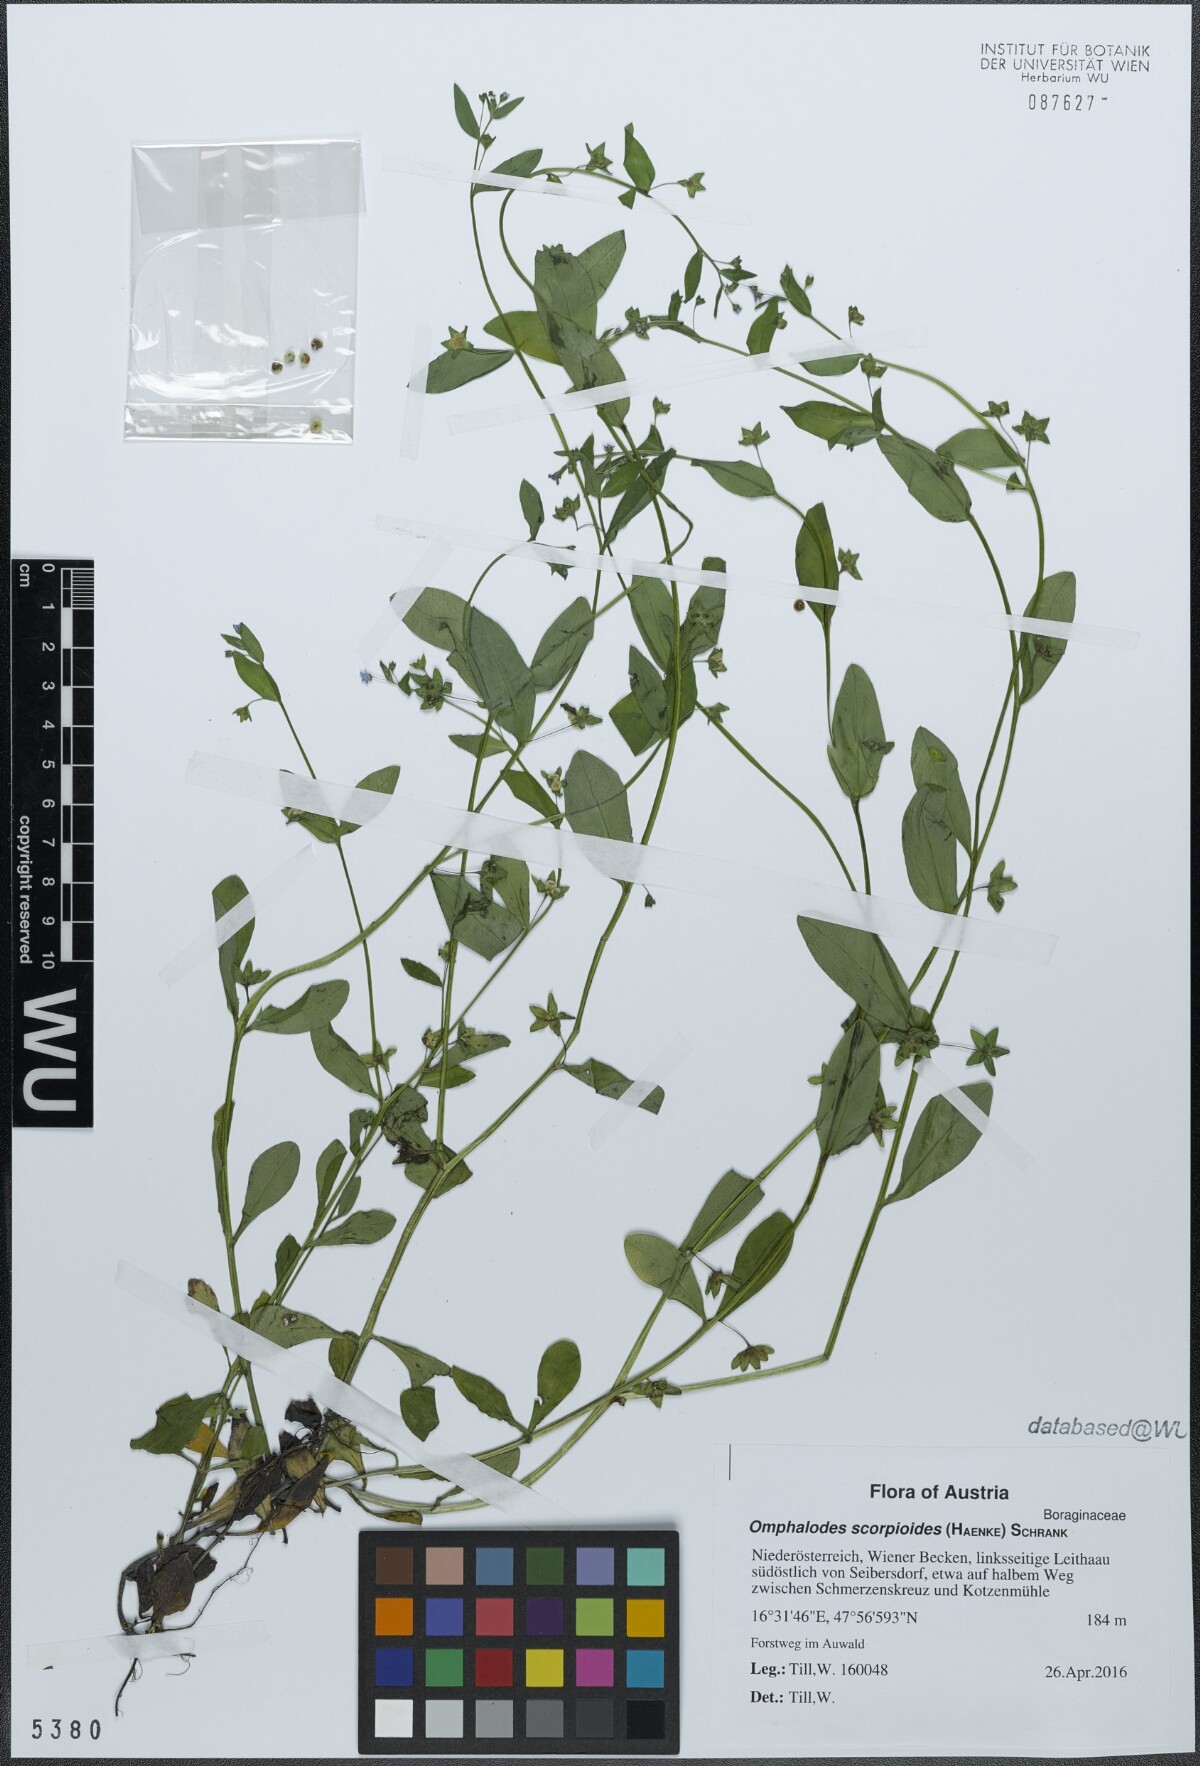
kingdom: Plantae
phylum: Tracheophyta
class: Magnoliopsida
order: Boraginales
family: Boraginaceae
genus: Memoremea
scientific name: Memoremea scorpioides
